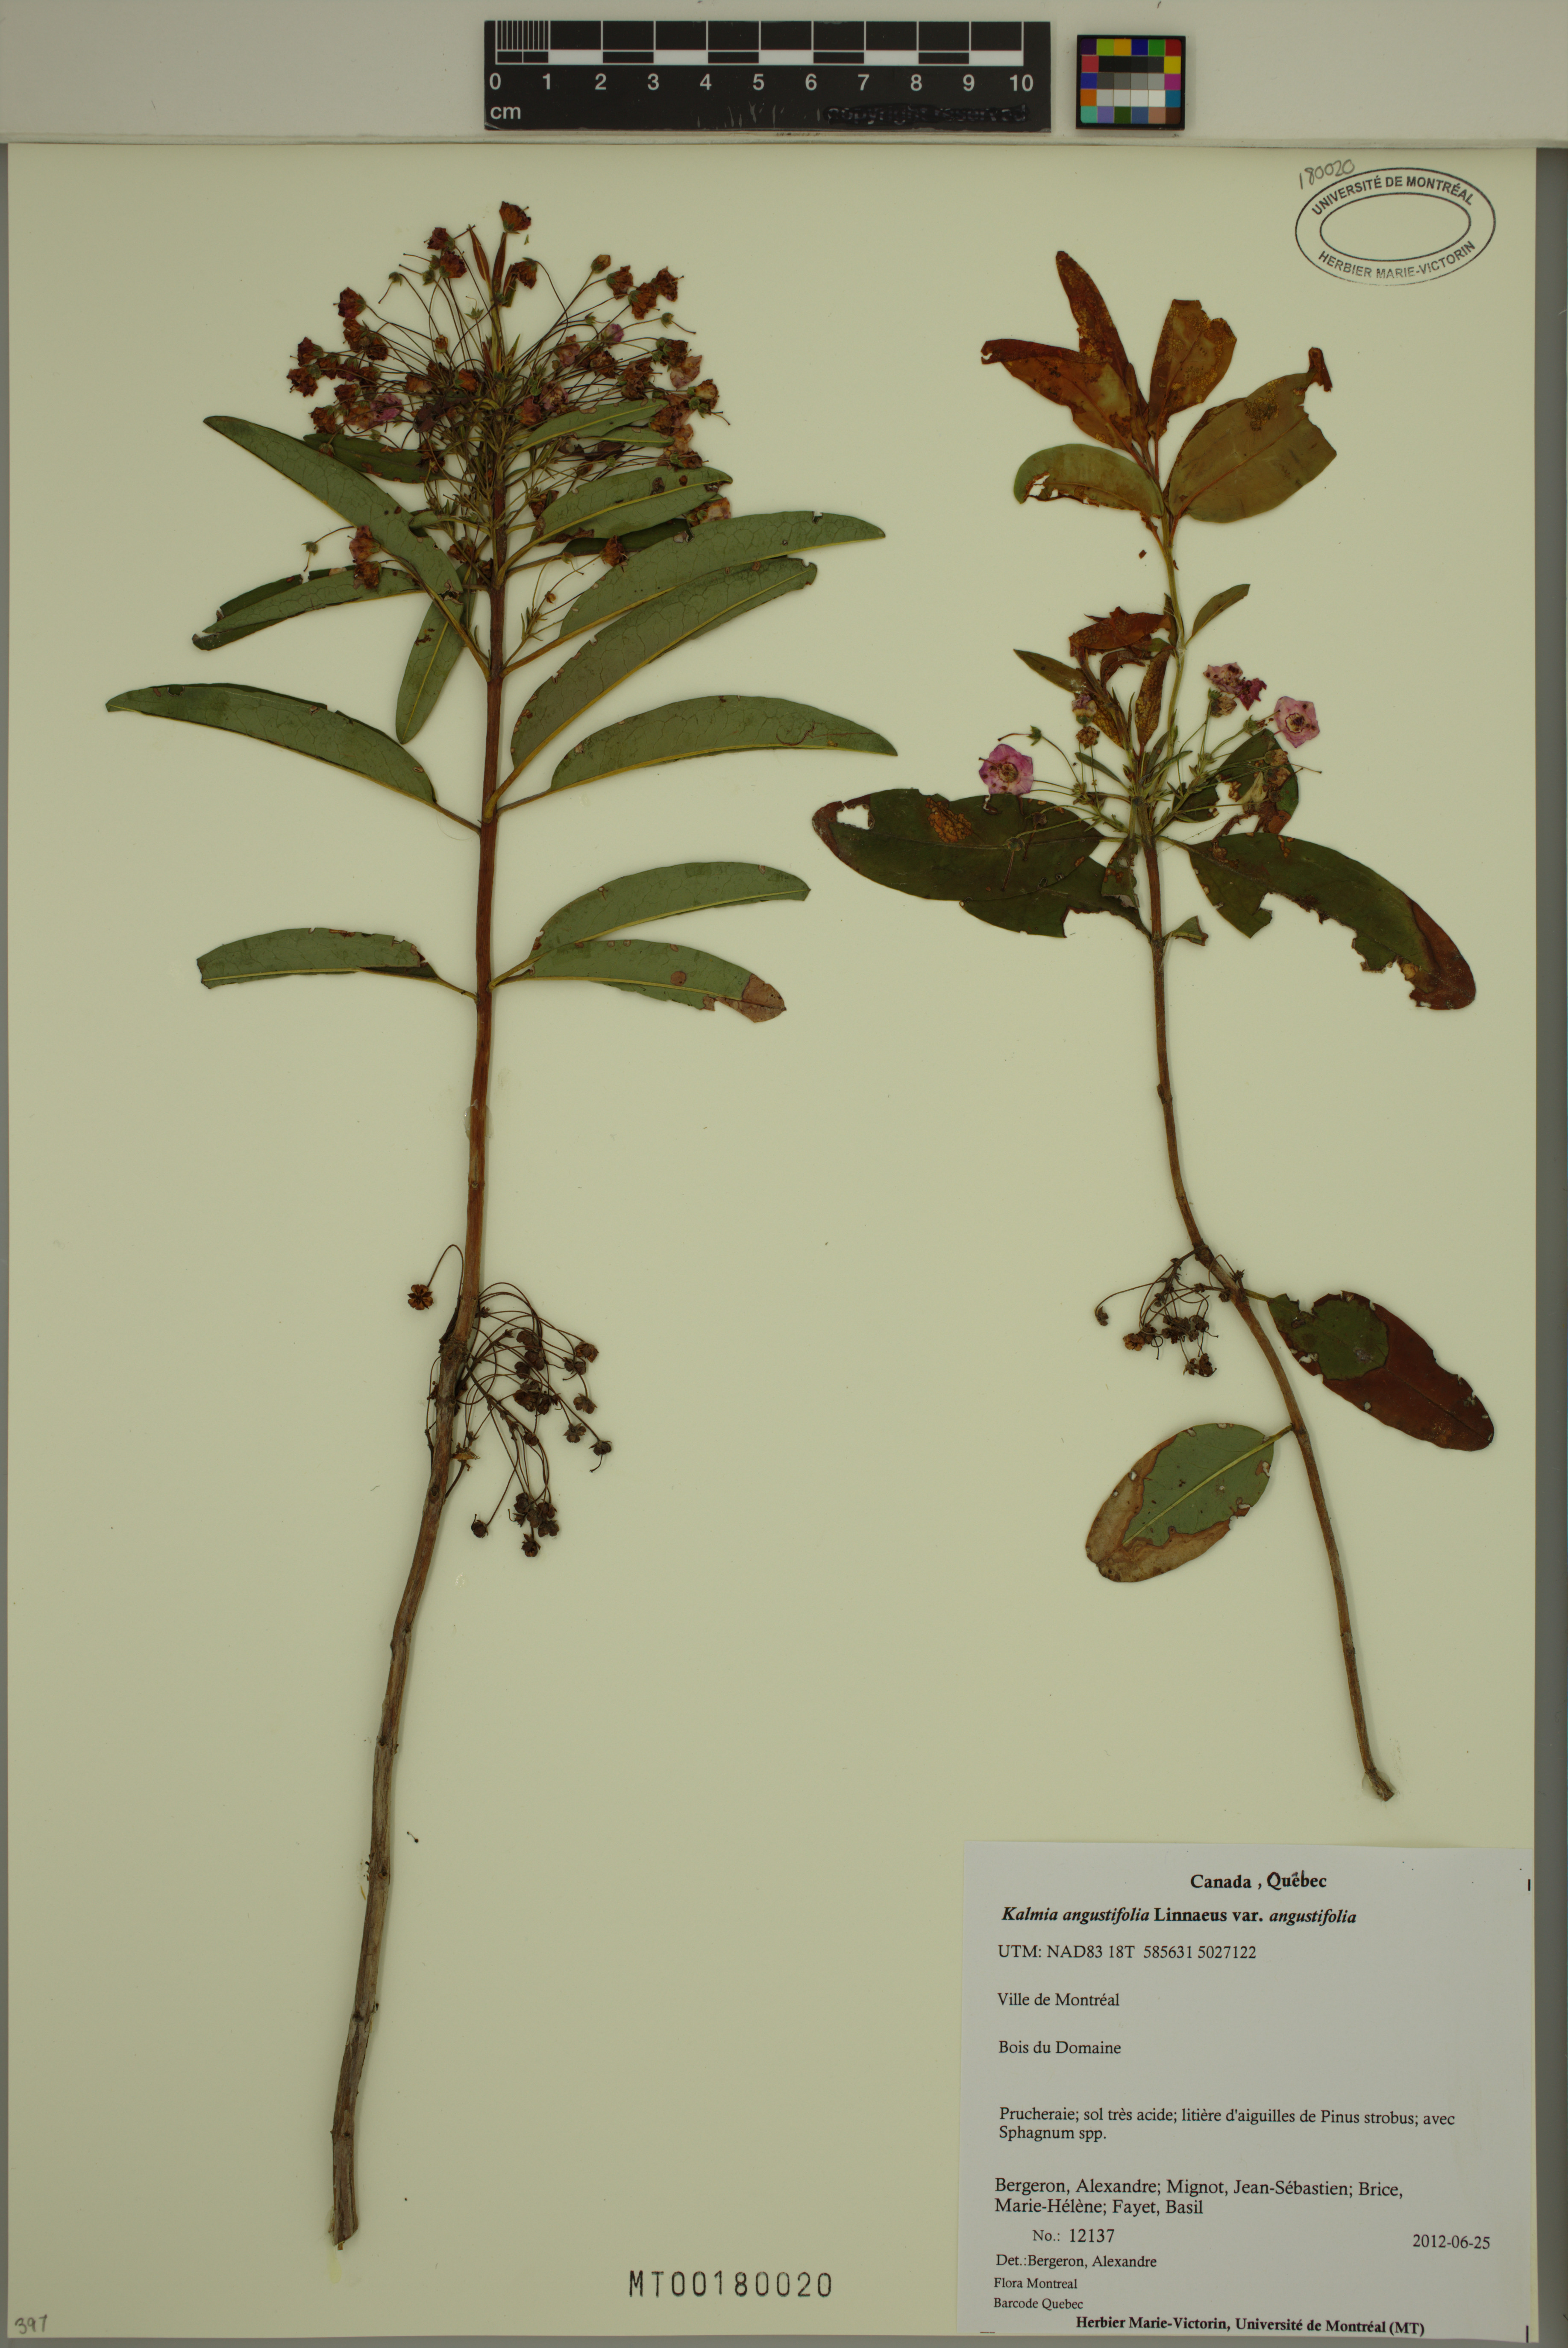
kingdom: Plantae
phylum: Tracheophyta
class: Magnoliopsida
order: Ericales
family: Ericaceae
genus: Kalmia
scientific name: Kalmia angustifolia
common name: Sheep-laurel
